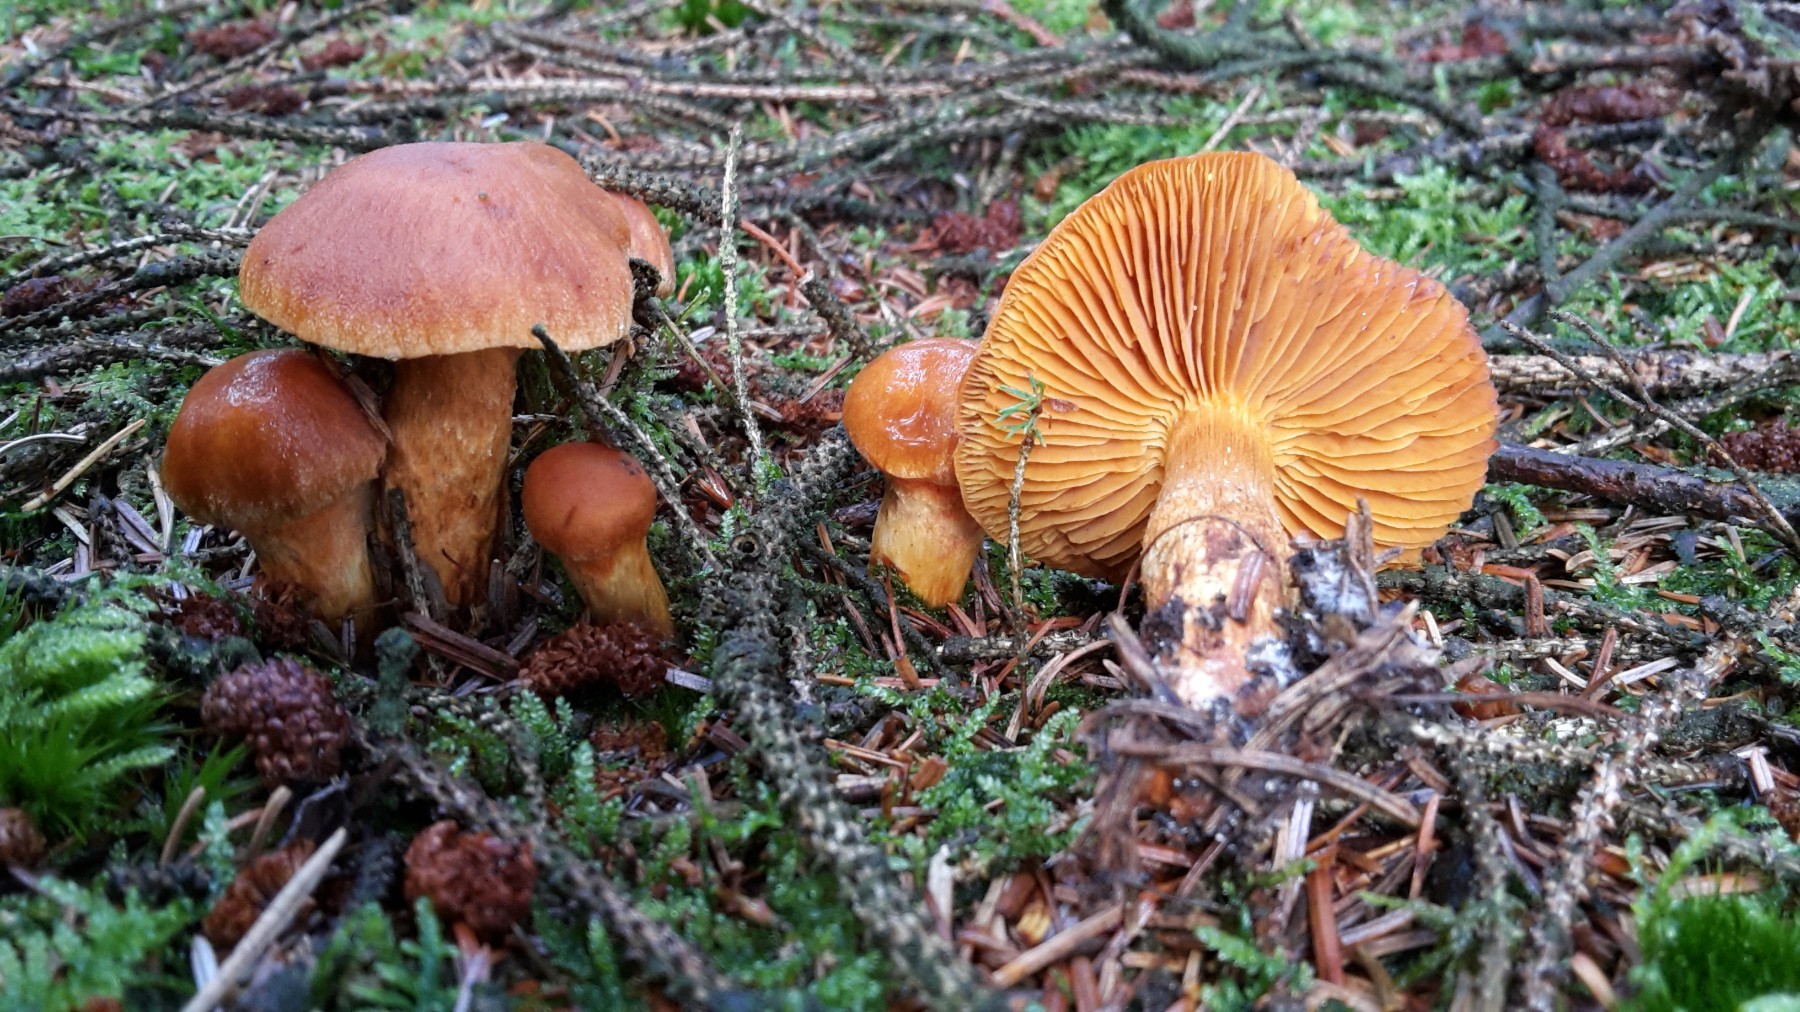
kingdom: Fungi
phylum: Basidiomycota
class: Agaricomycetes
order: Agaricales
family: Cortinariaceae
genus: Aureonarius
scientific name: Aureonarius limonius
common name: orangegul slørhat
